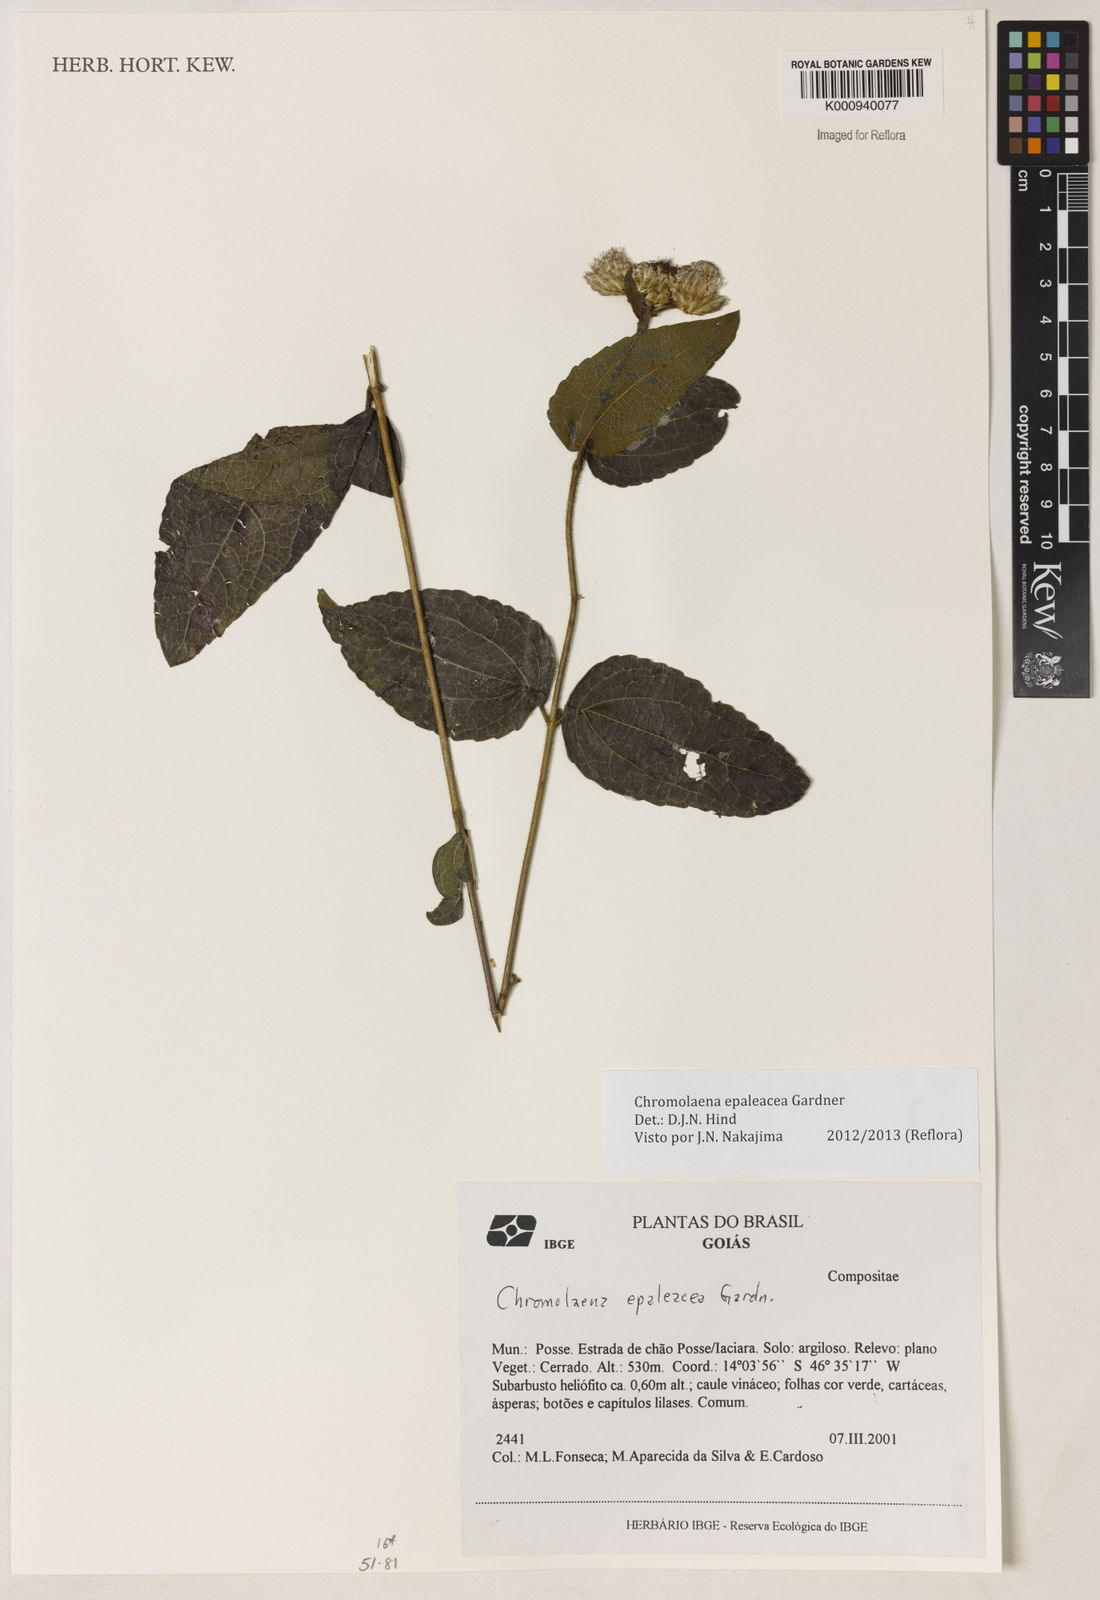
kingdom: Plantae
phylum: Tracheophyta
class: Magnoliopsida
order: Asterales
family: Asteraceae
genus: Chromolaena
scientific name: Chromolaena epaleacea
